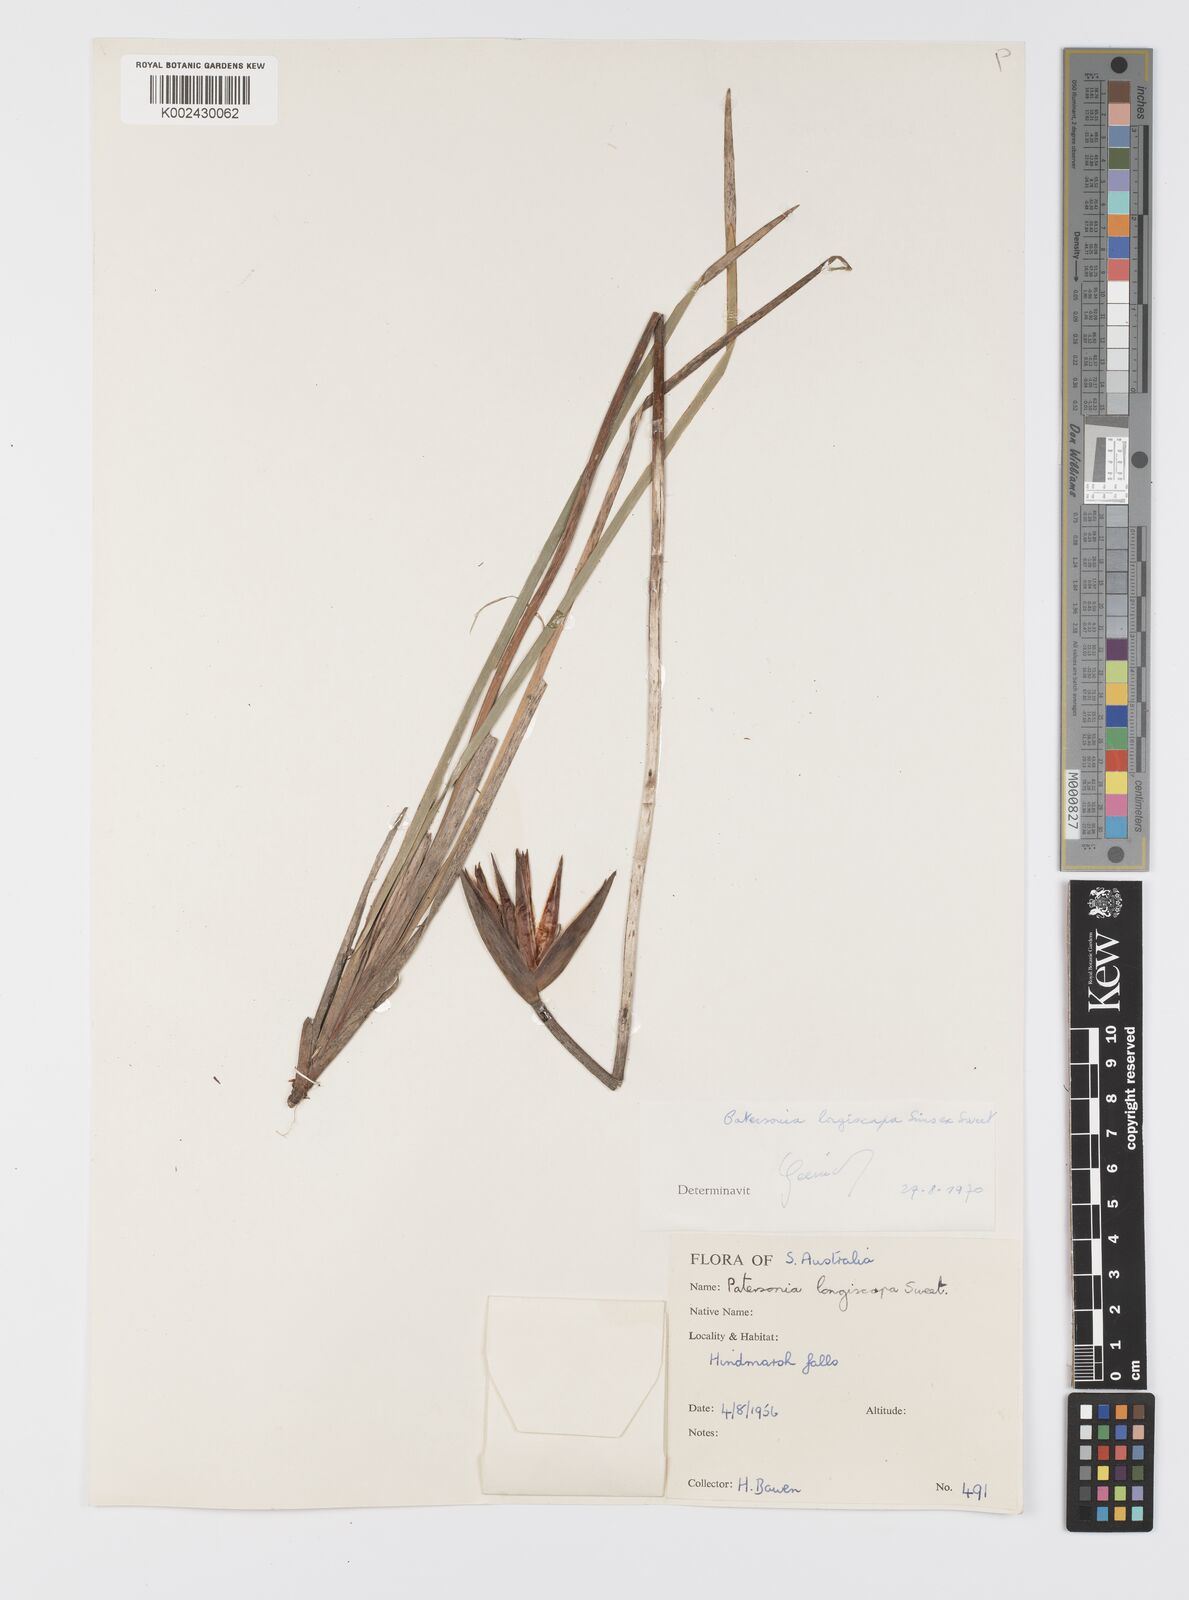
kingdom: Plantae
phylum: Tracheophyta
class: Liliopsida
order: Asparagales
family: Iridaceae
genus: Patersonia
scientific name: Patersonia occidentalis
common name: Long purple-flag
